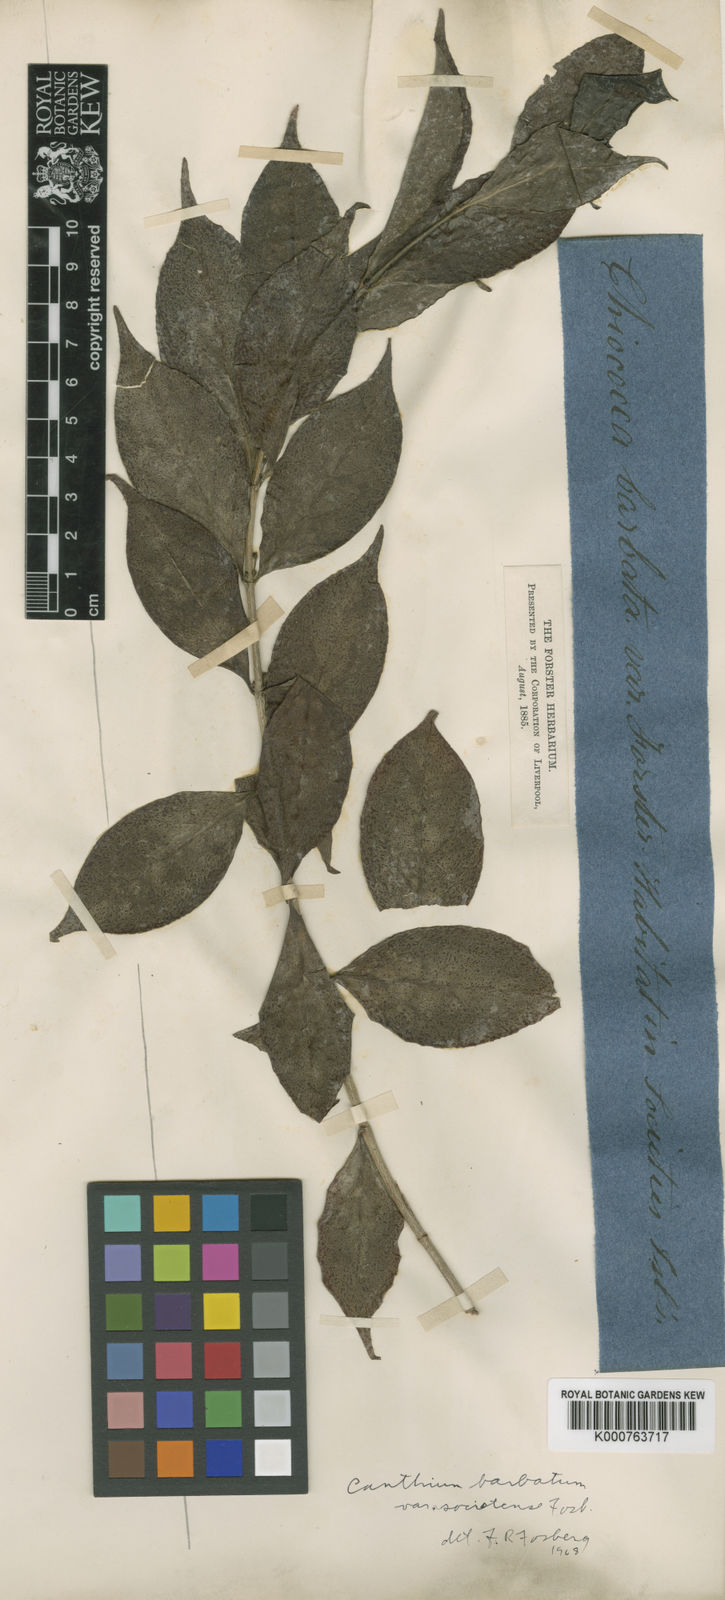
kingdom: Plantae
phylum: Tracheophyta
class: Magnoliopsida
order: Gentianales
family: Rubiaceae
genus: Cyclophyllum
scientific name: Cyclophyllum
